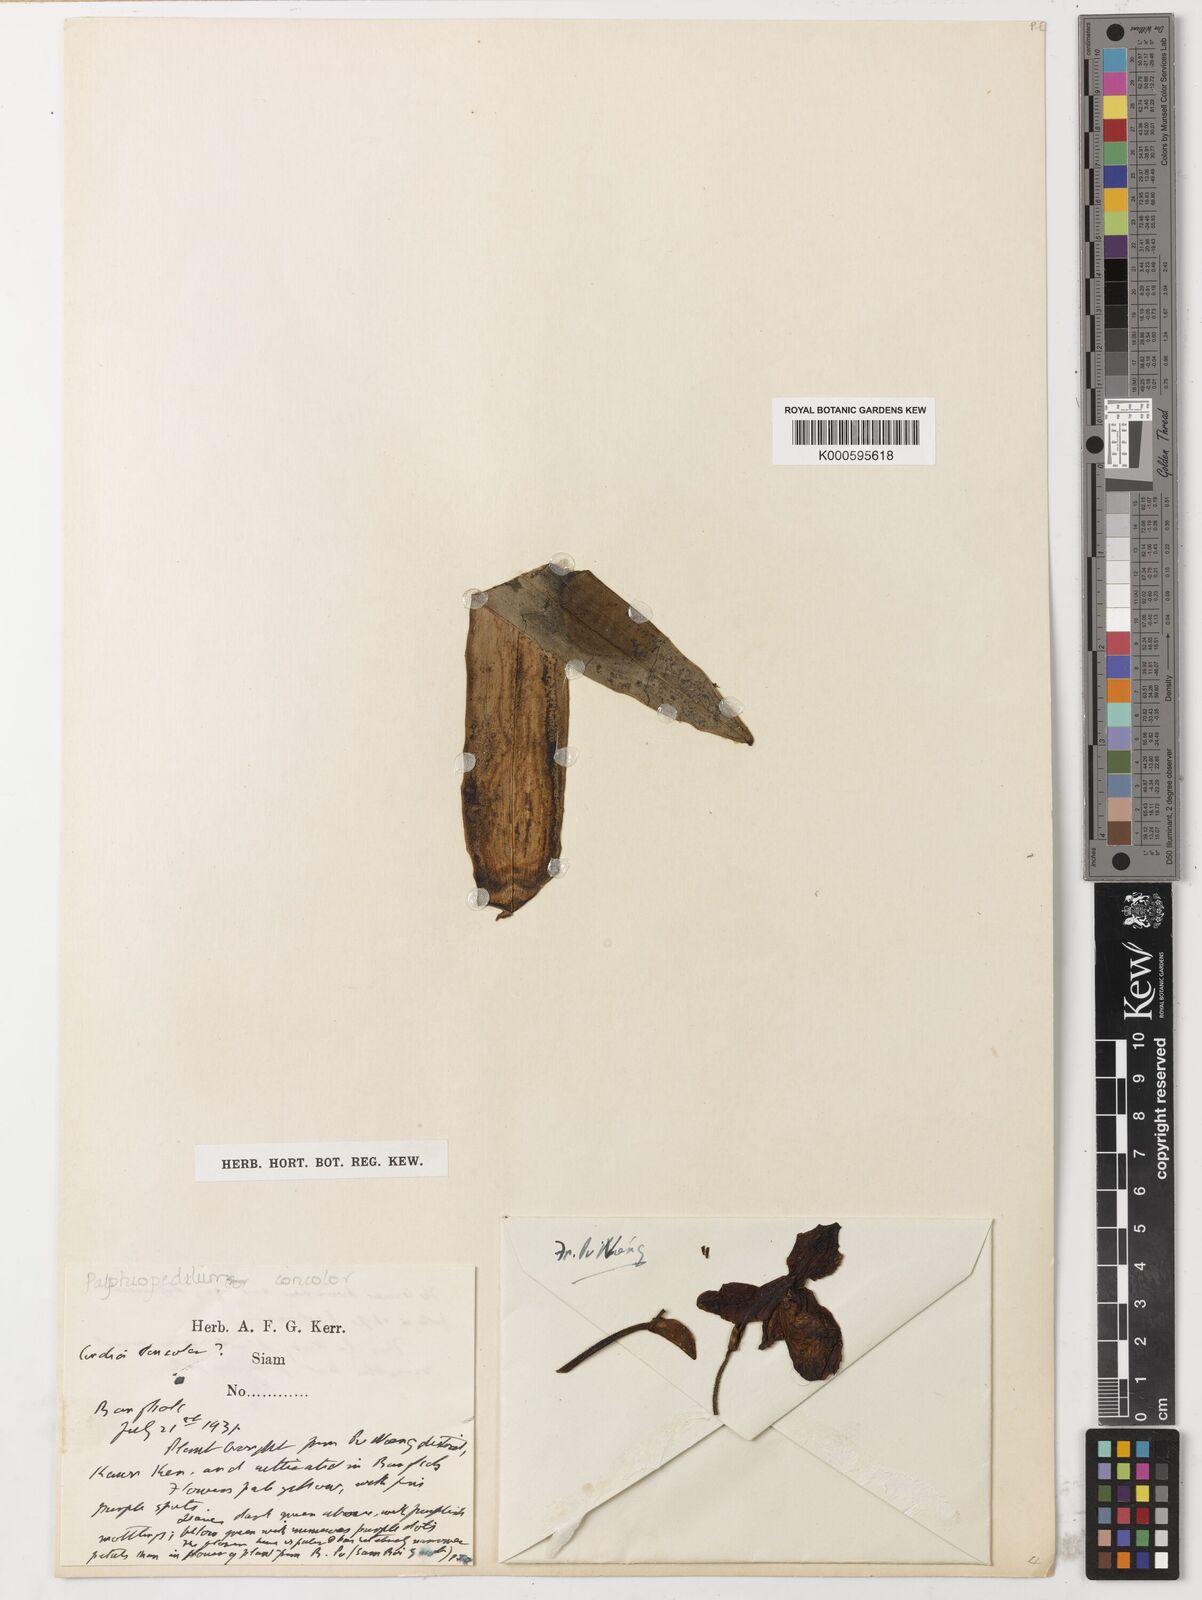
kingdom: Plantae
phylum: Tracheophyta
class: Liliopsida
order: Asparagales
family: Orchidaceae
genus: Paphiopedilum
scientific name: Paphiopedilum concolor
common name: One colored paphiopedilum
